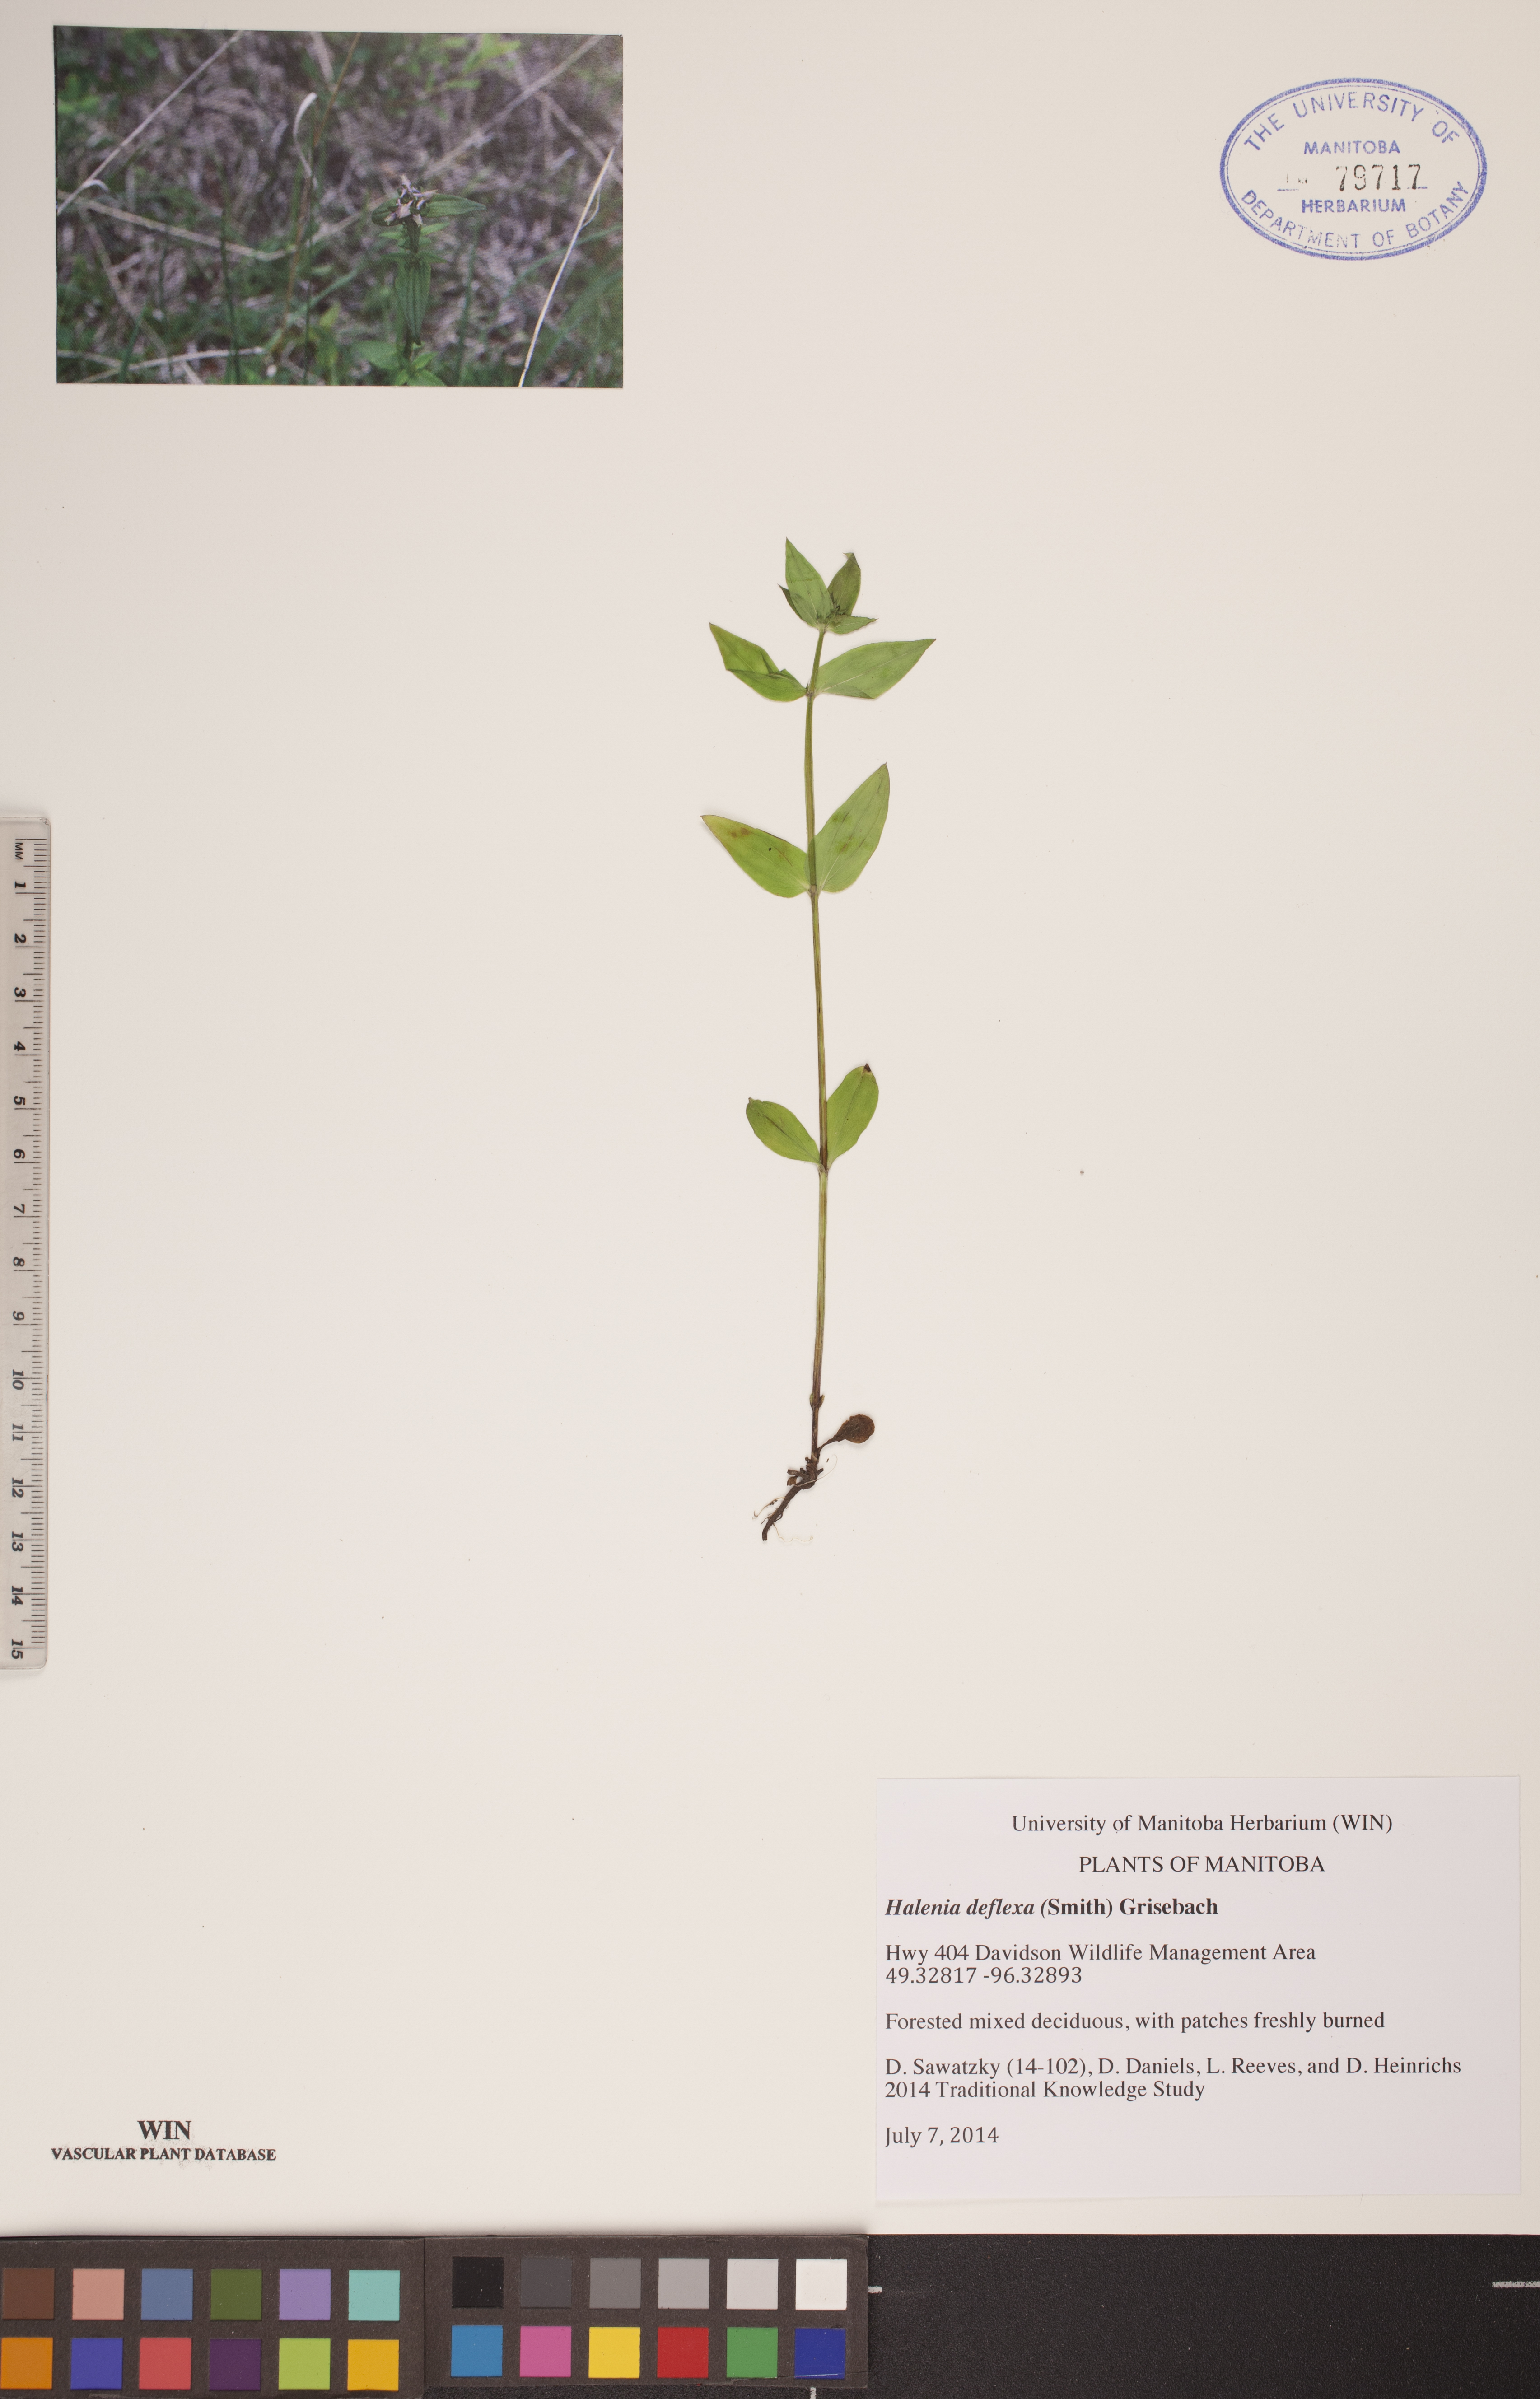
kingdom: Plantae
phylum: Tracheophyta
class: Magnoliopsida
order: Gentianales
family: Gentianaceae
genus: Halenia
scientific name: Halenia deflexa
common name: American spurred gentian
